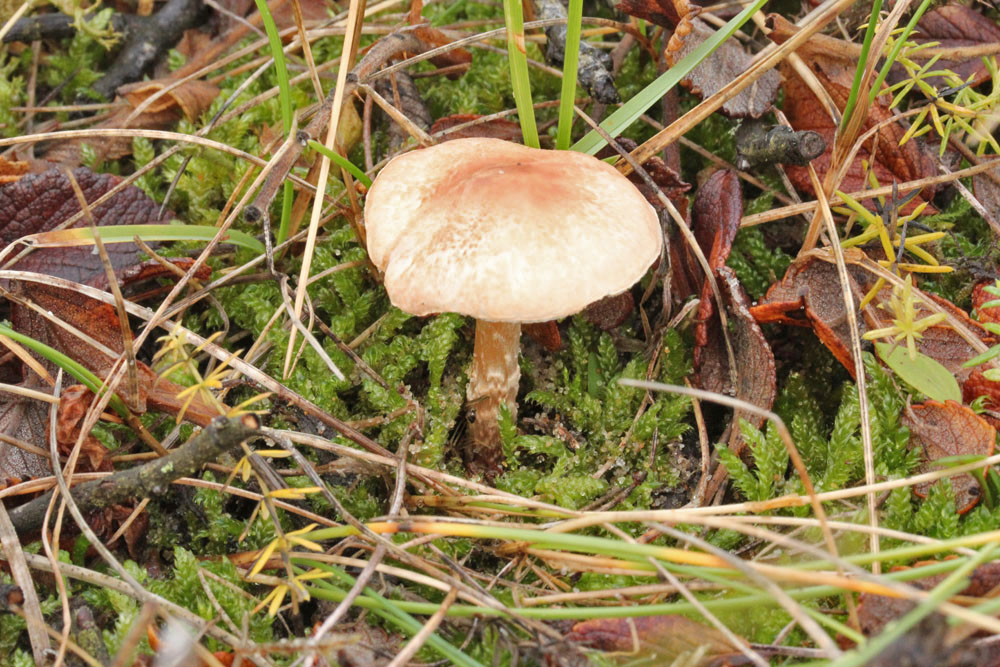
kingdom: Fungi
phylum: Basidiomycota
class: Agaricomycetes
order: Agaricales
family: Agaricaceae
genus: Lepiota
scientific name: Lepiota subincarnata
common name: kødfarvet parasolhat
